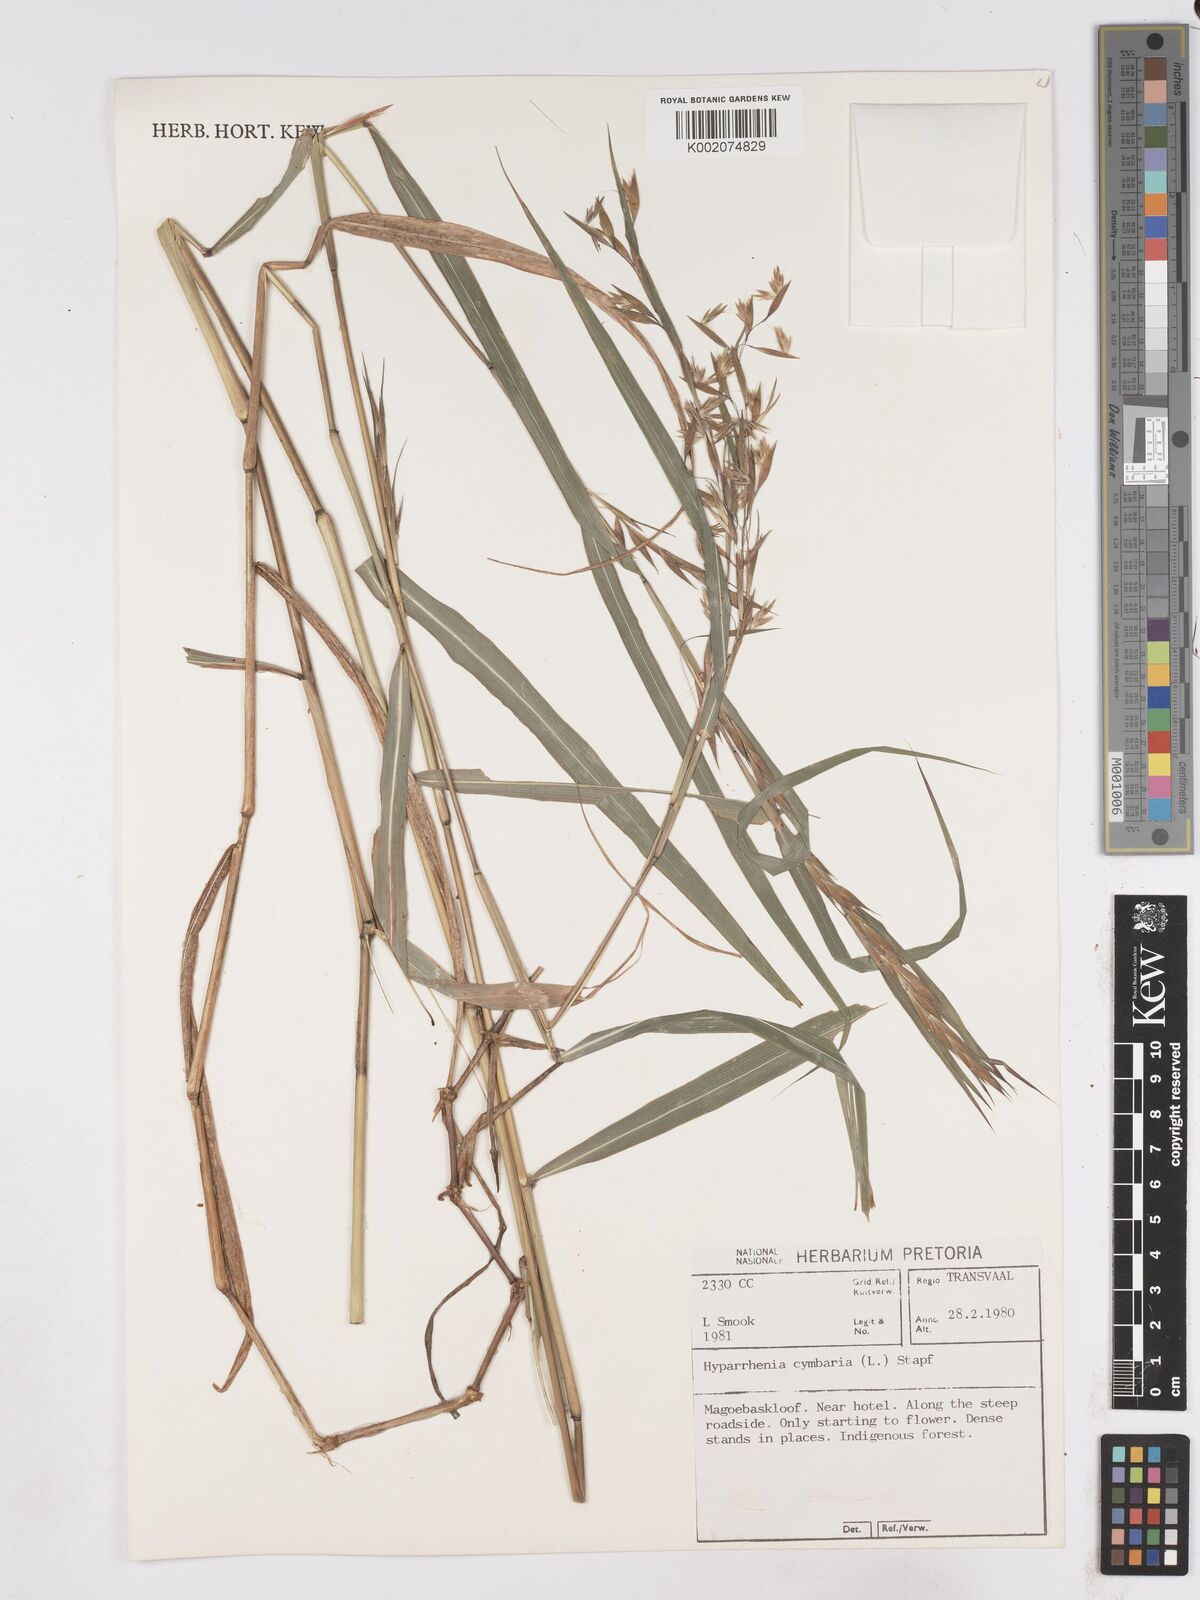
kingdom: Plantae
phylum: Tracheophyta
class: Liliopsida
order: Poales
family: Poaceae
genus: Hyparrhenia
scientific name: Hyparrhenia cymbaria
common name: Boat thatching grass
